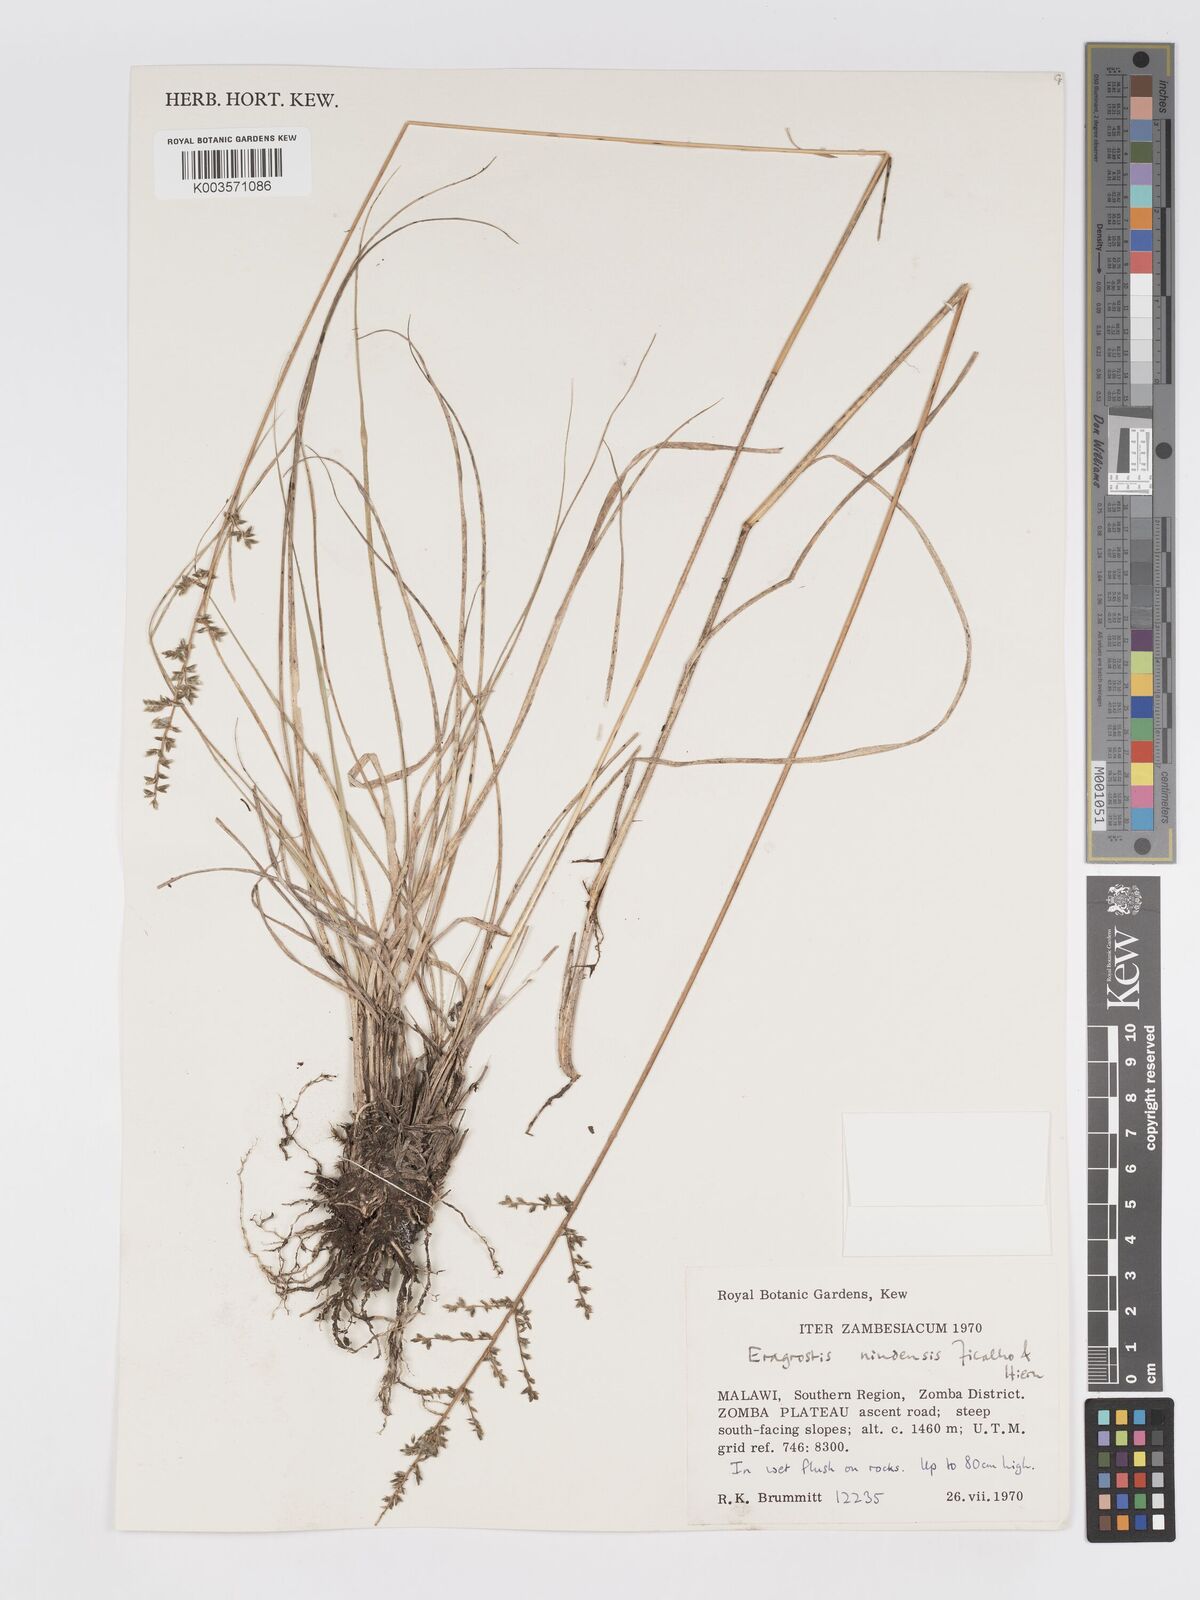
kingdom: Plantae
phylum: Tracheophyta
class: Liliopsida
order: Poales
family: Poaceae
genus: Eragrostis
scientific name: Eragrostis nindensis
